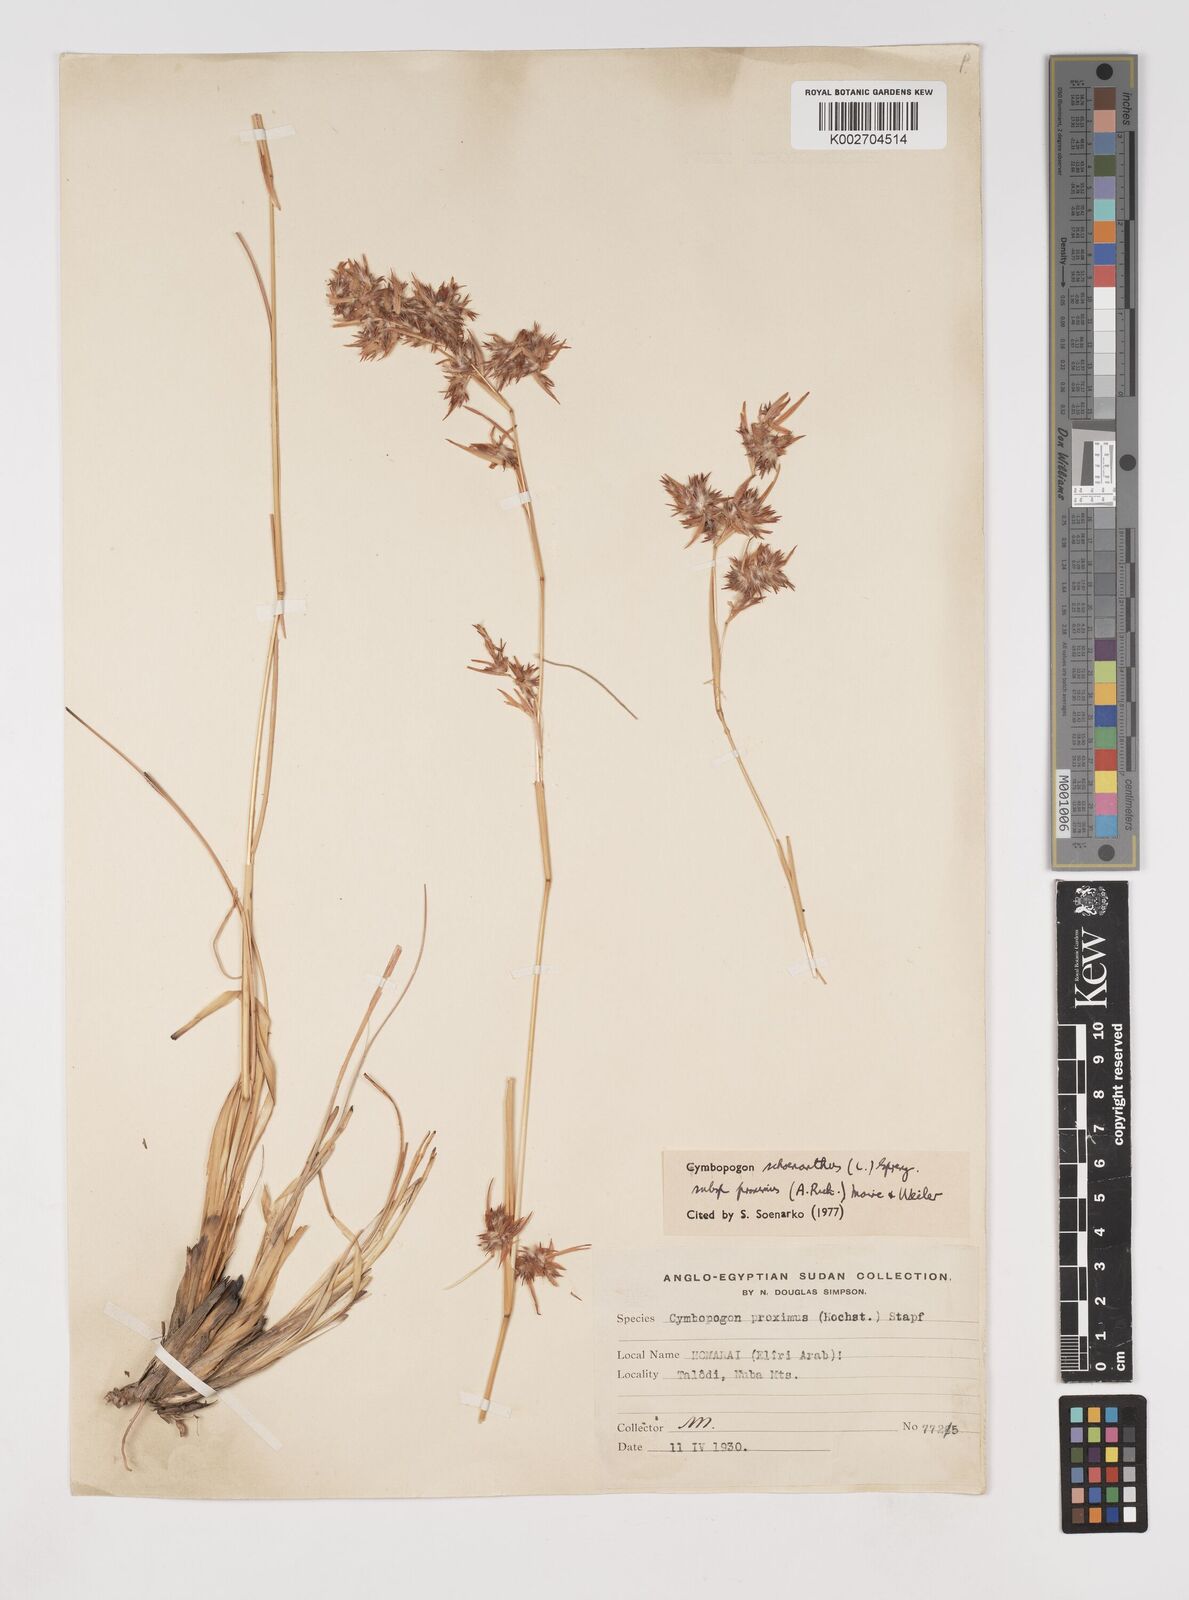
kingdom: Plantae
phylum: Tracheophyta
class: Liliopsida
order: Poales
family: Poaceae
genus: Cymbopogon
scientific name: Cymbopogon schoenanthus
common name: Geranium grass
